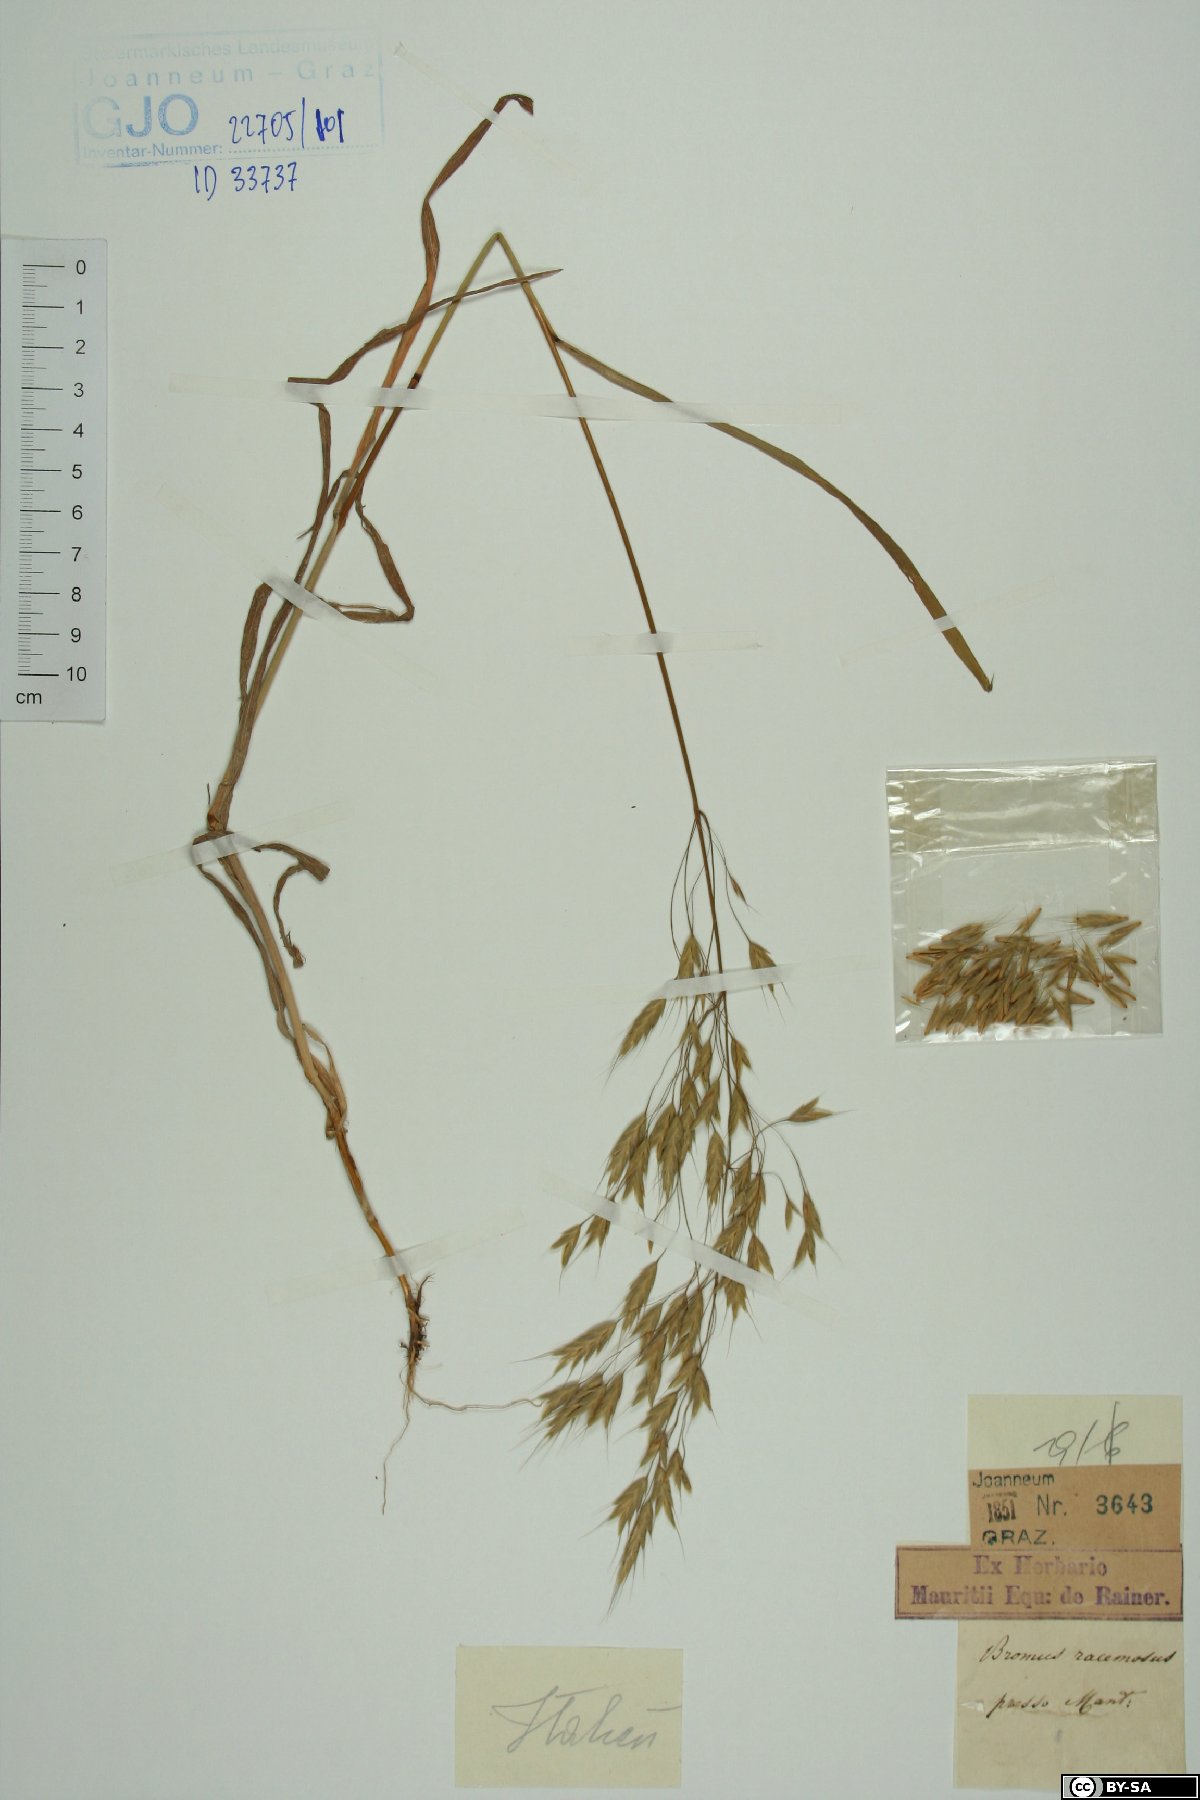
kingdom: Plantae
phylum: Tracheophyta
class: Liliopsida
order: Poales
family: Poaceae
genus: Bromus
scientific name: Bromus racemosus
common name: Bald brome
